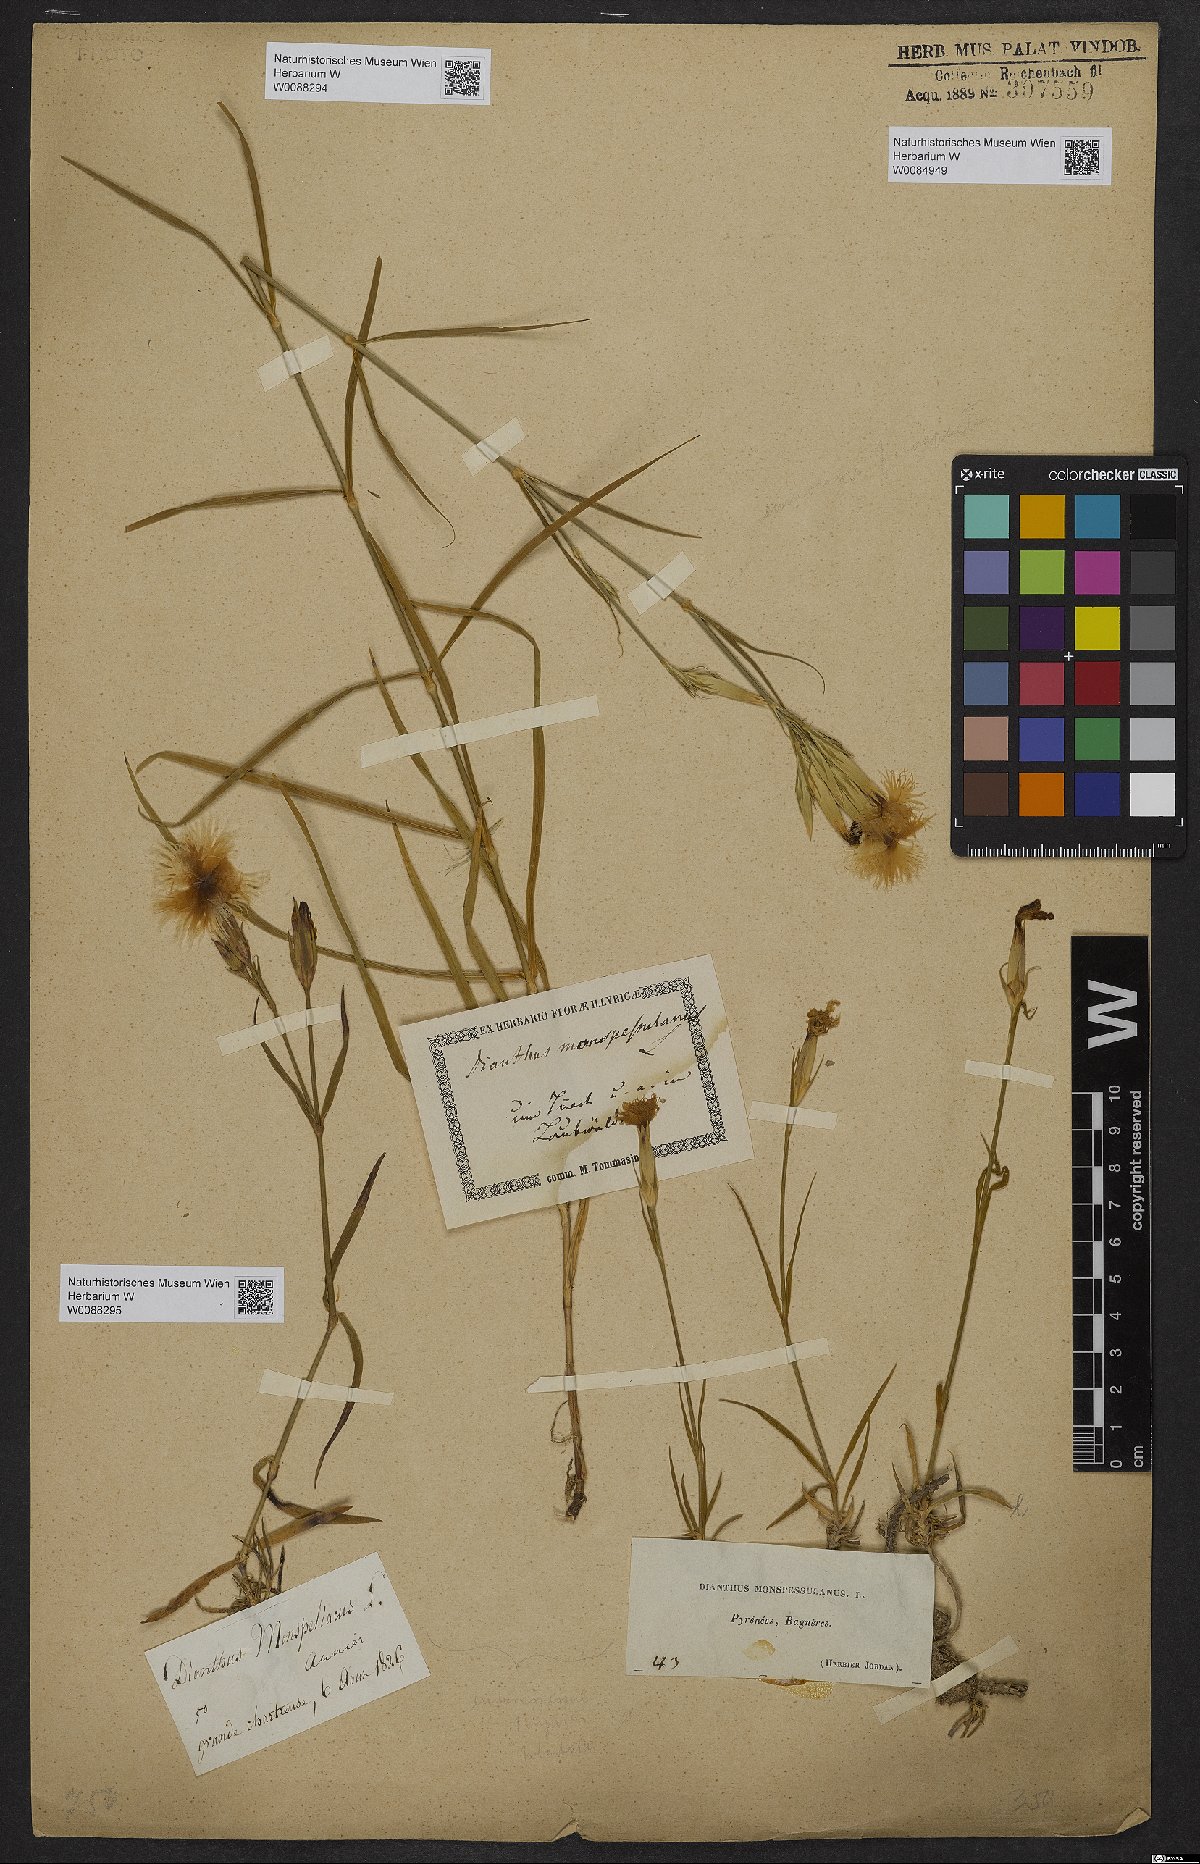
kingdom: Plantae
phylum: Tracheophyta
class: Magnoliopsida
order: Caryophyllales
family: Caryophyllaceae
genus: Dianthus
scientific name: Dianthus hyssopifolius
